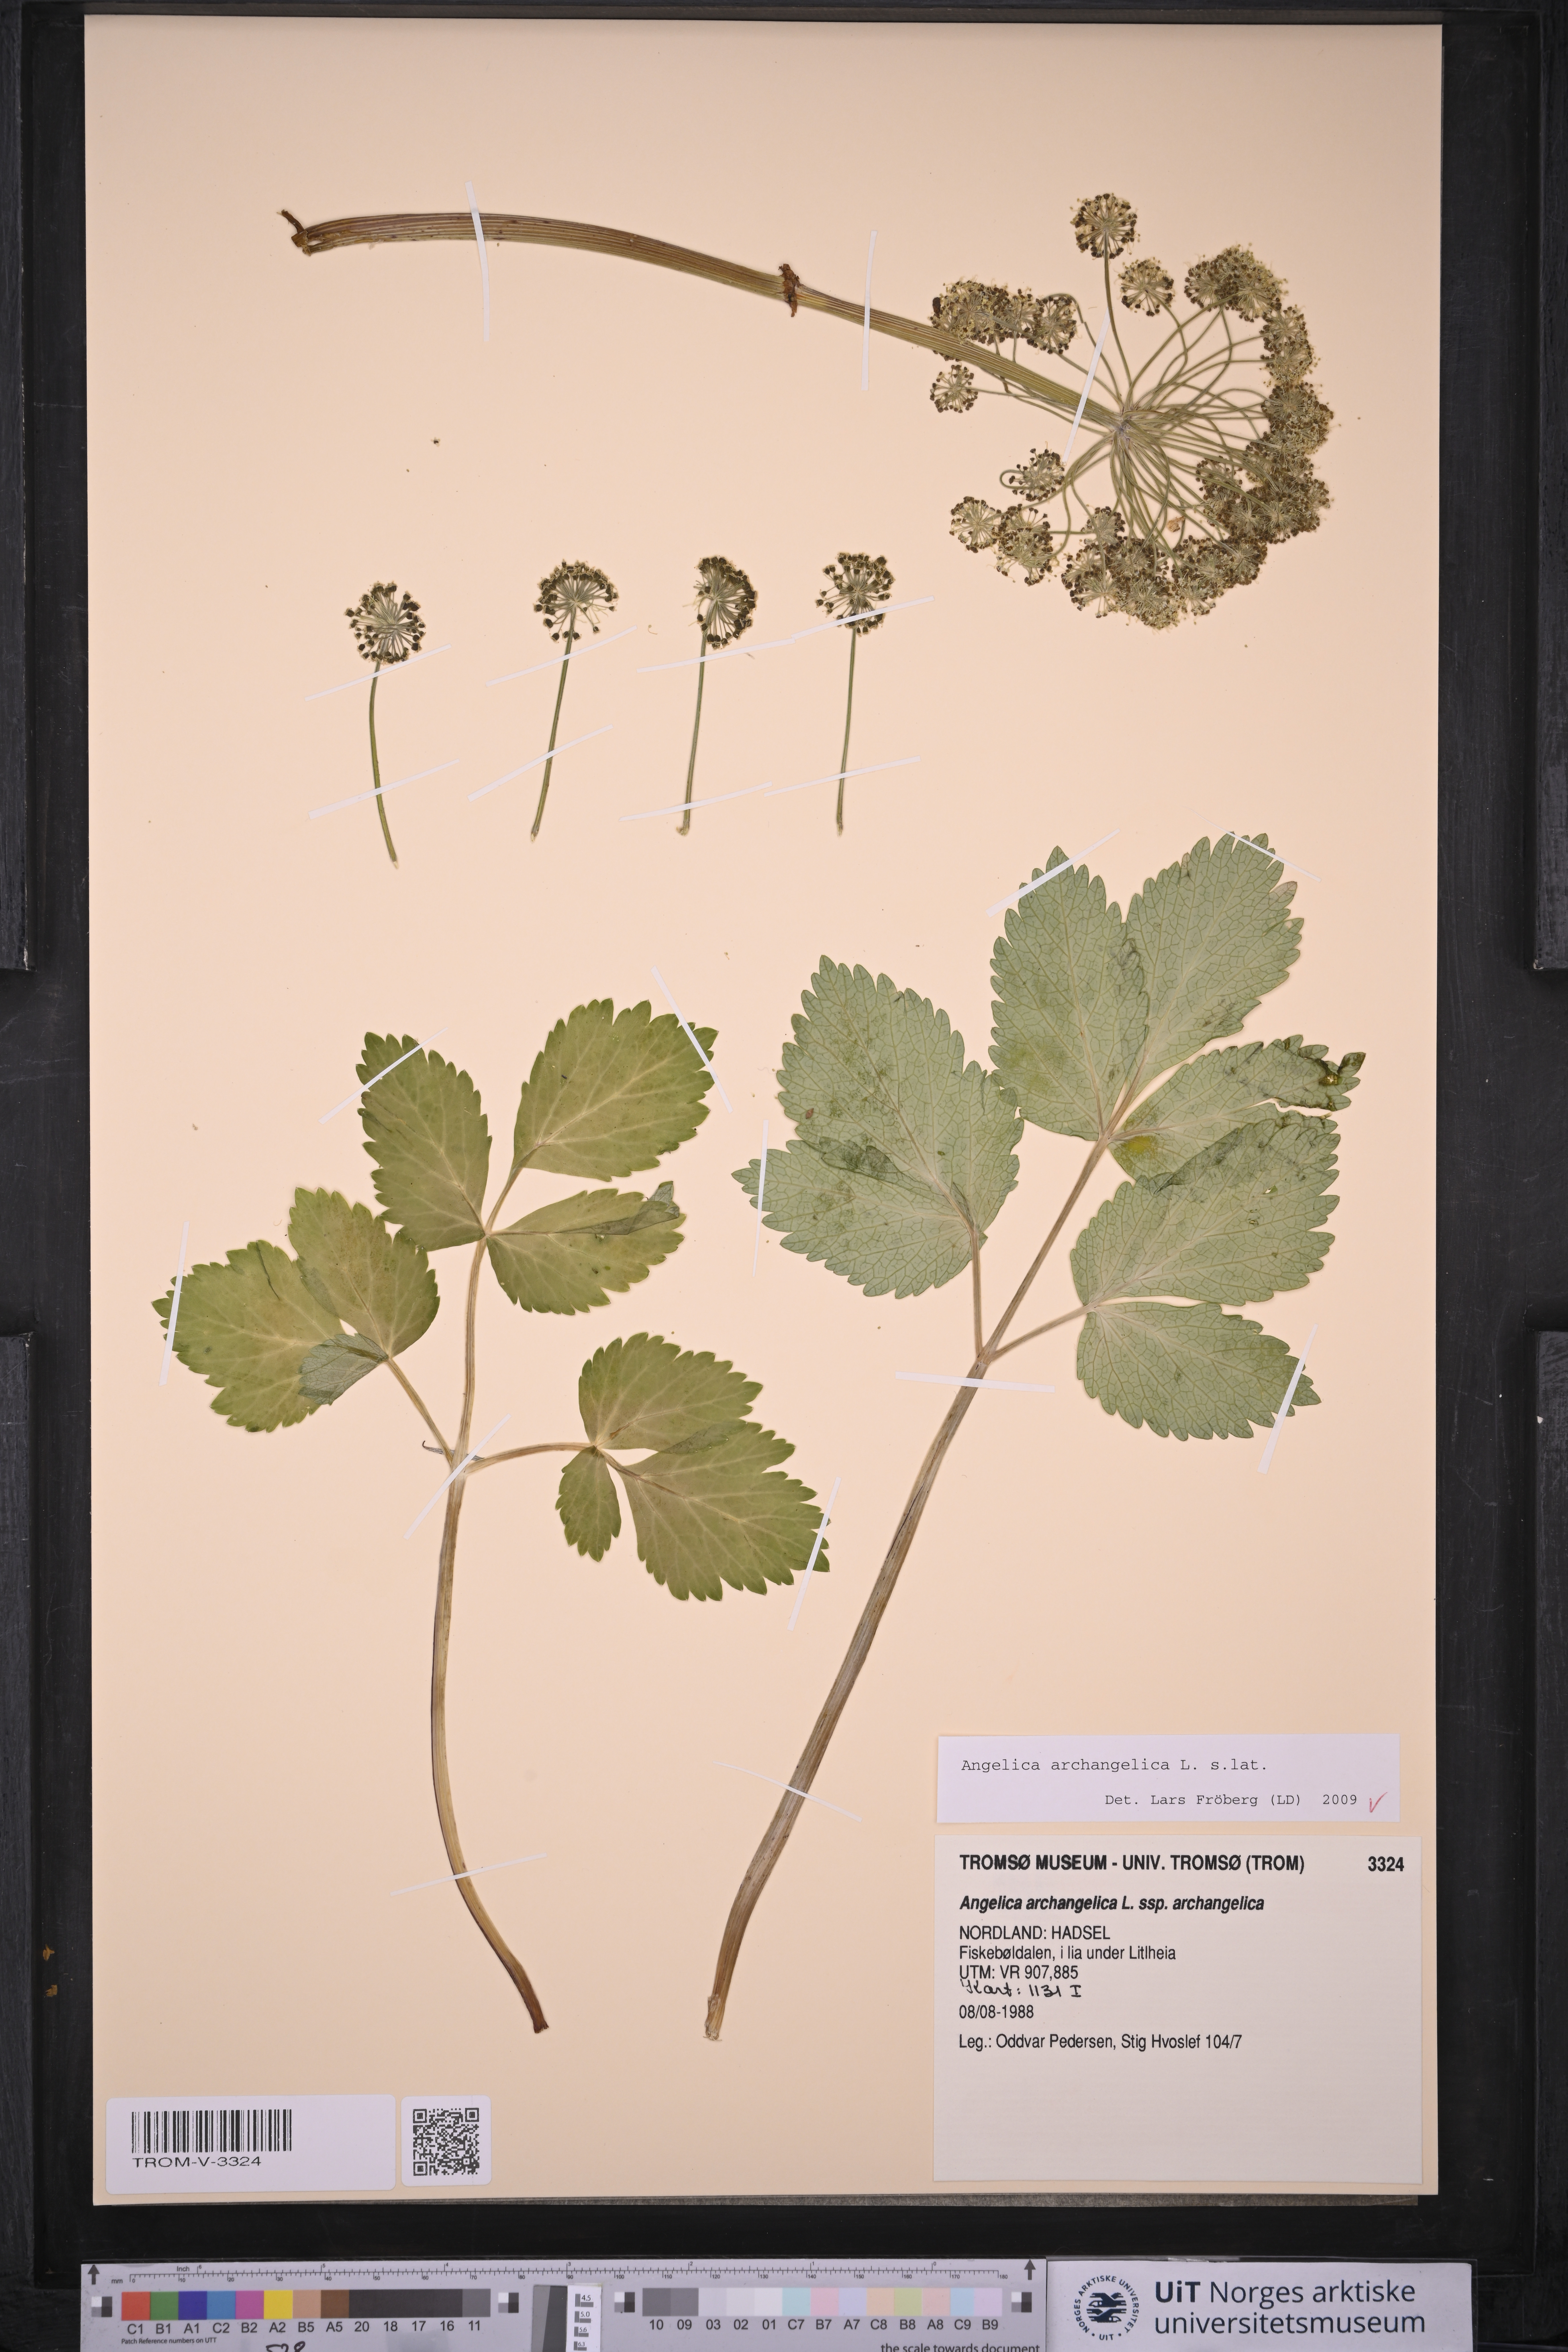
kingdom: Plantae
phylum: Tracheophyta
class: Magnoliopsida
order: Apiales
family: Apiaceae
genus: Angelica
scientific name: Angelica archangelica
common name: Garden angelica
